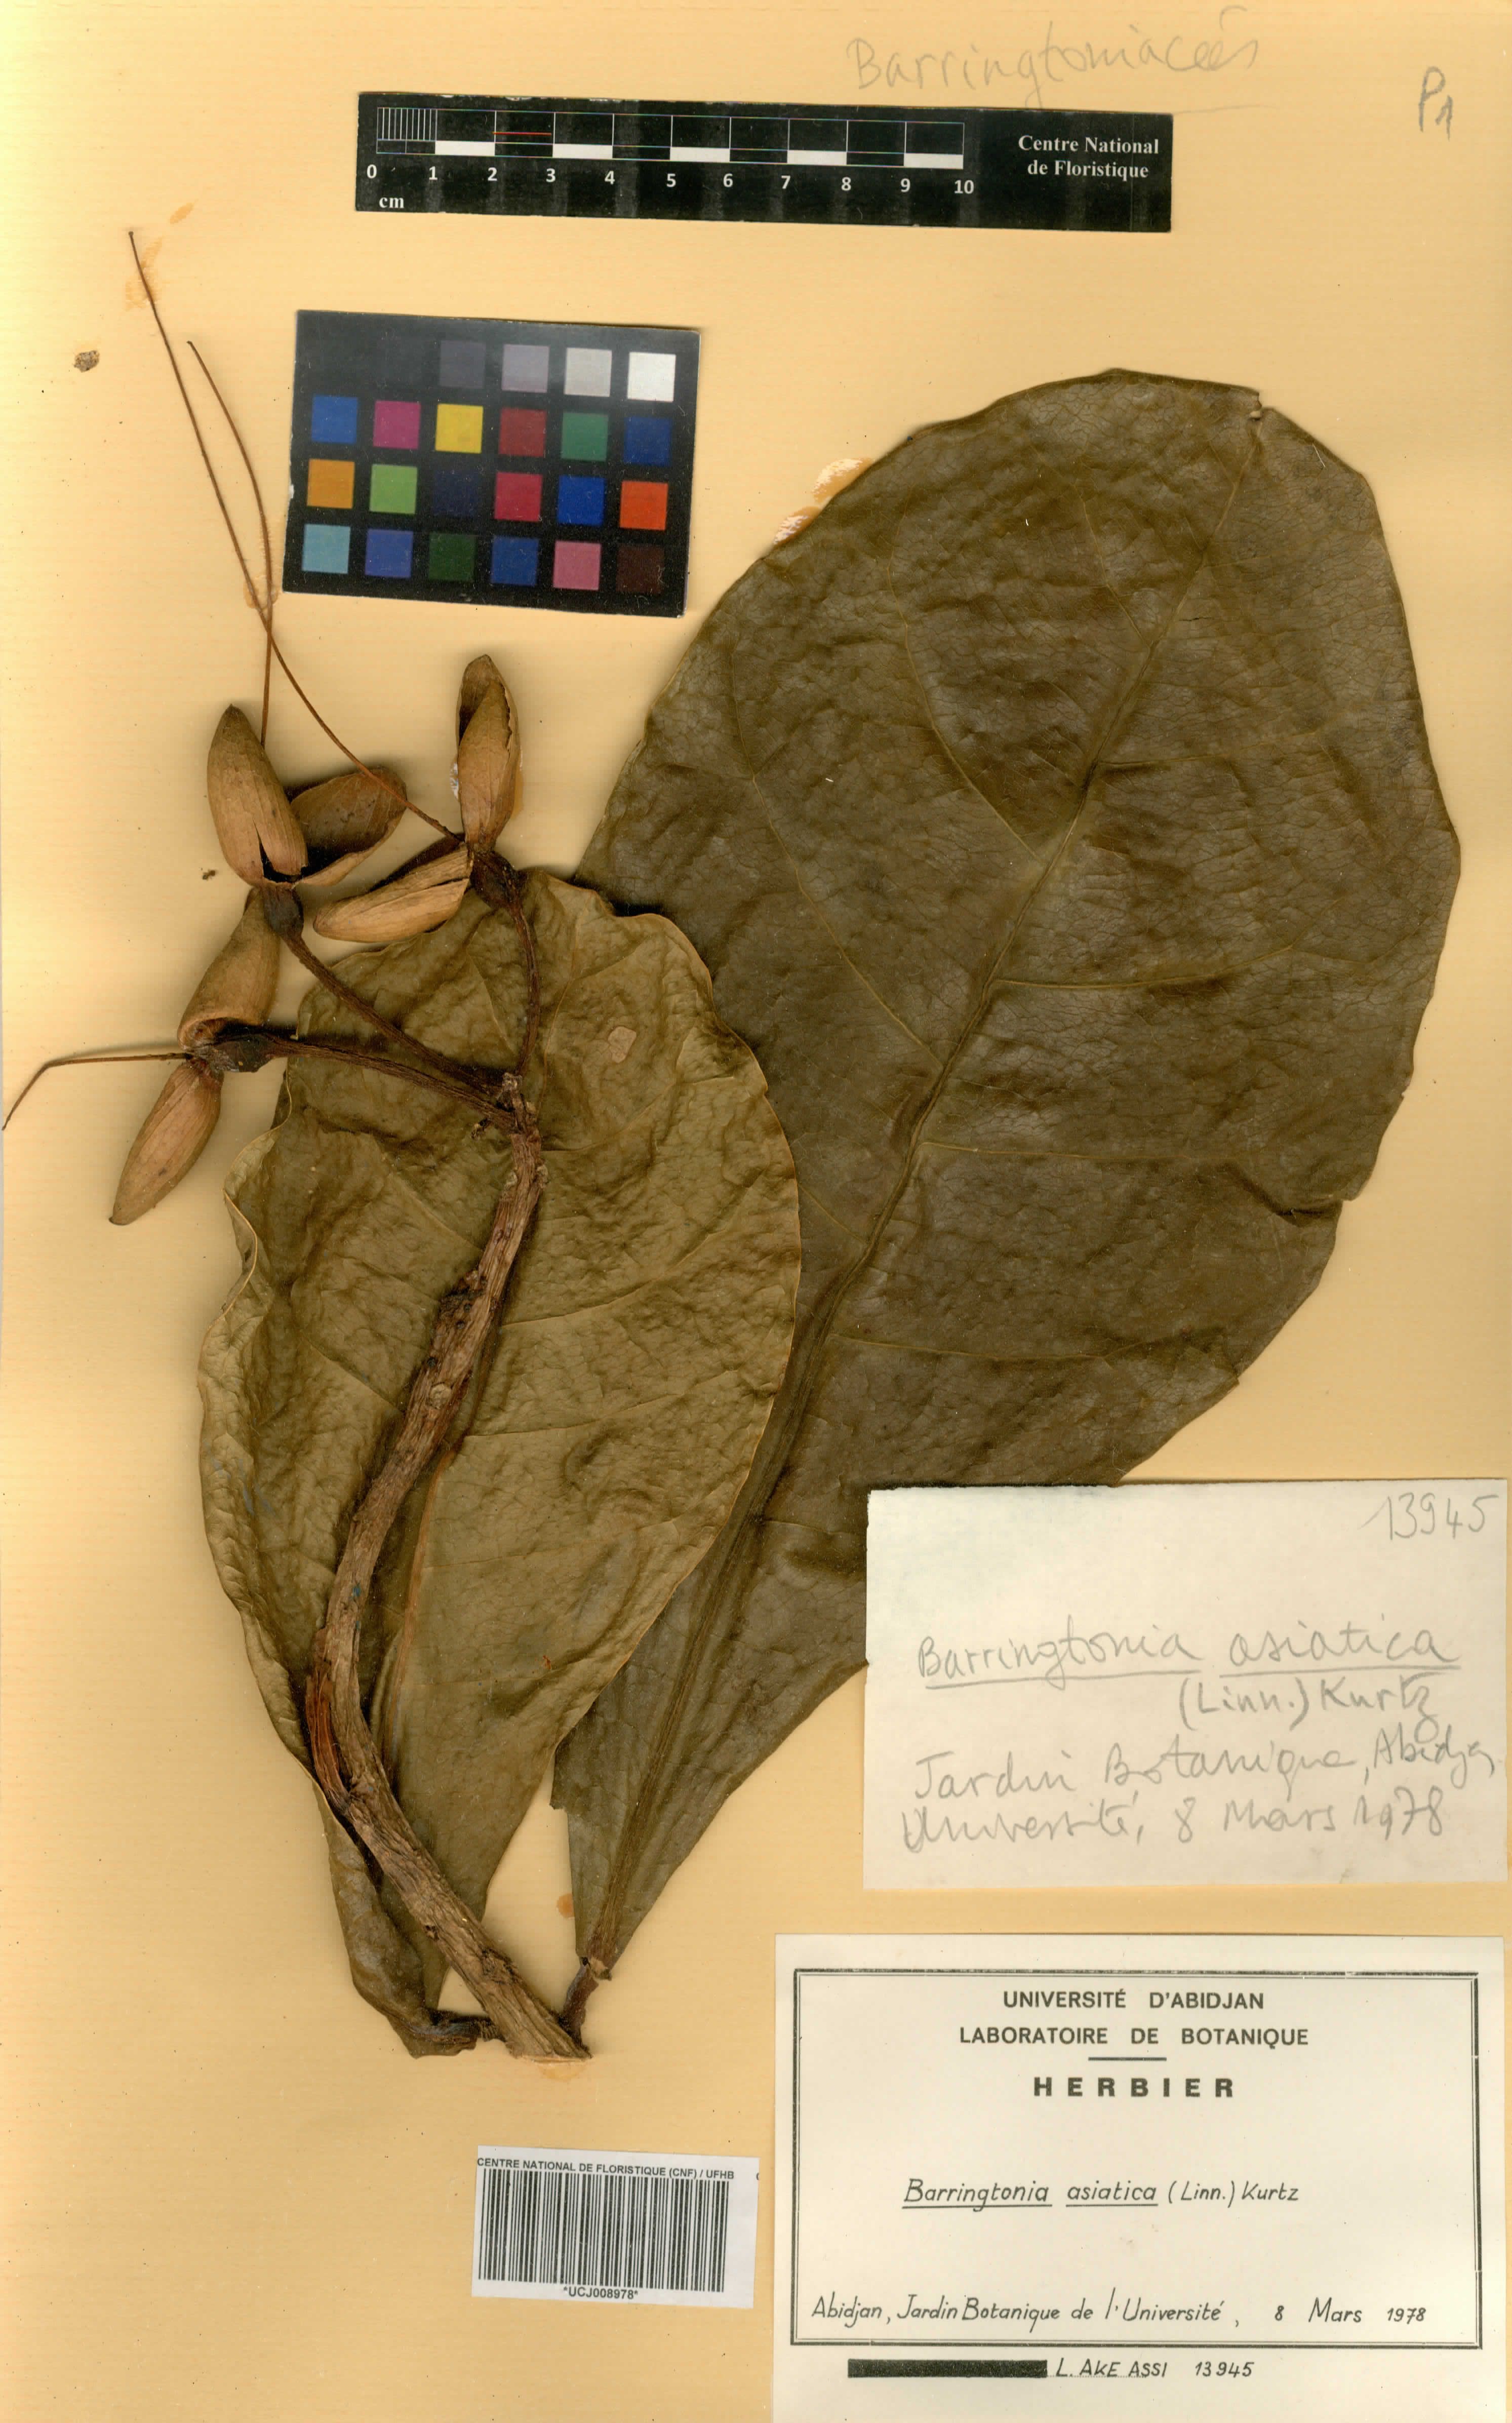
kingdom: Plantae
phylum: Tracheophyta
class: Magnoliopsida
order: Ericales
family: Lecythidaceae
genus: Barringtonia
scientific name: Barringtonia asiatica
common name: Mango-pine
